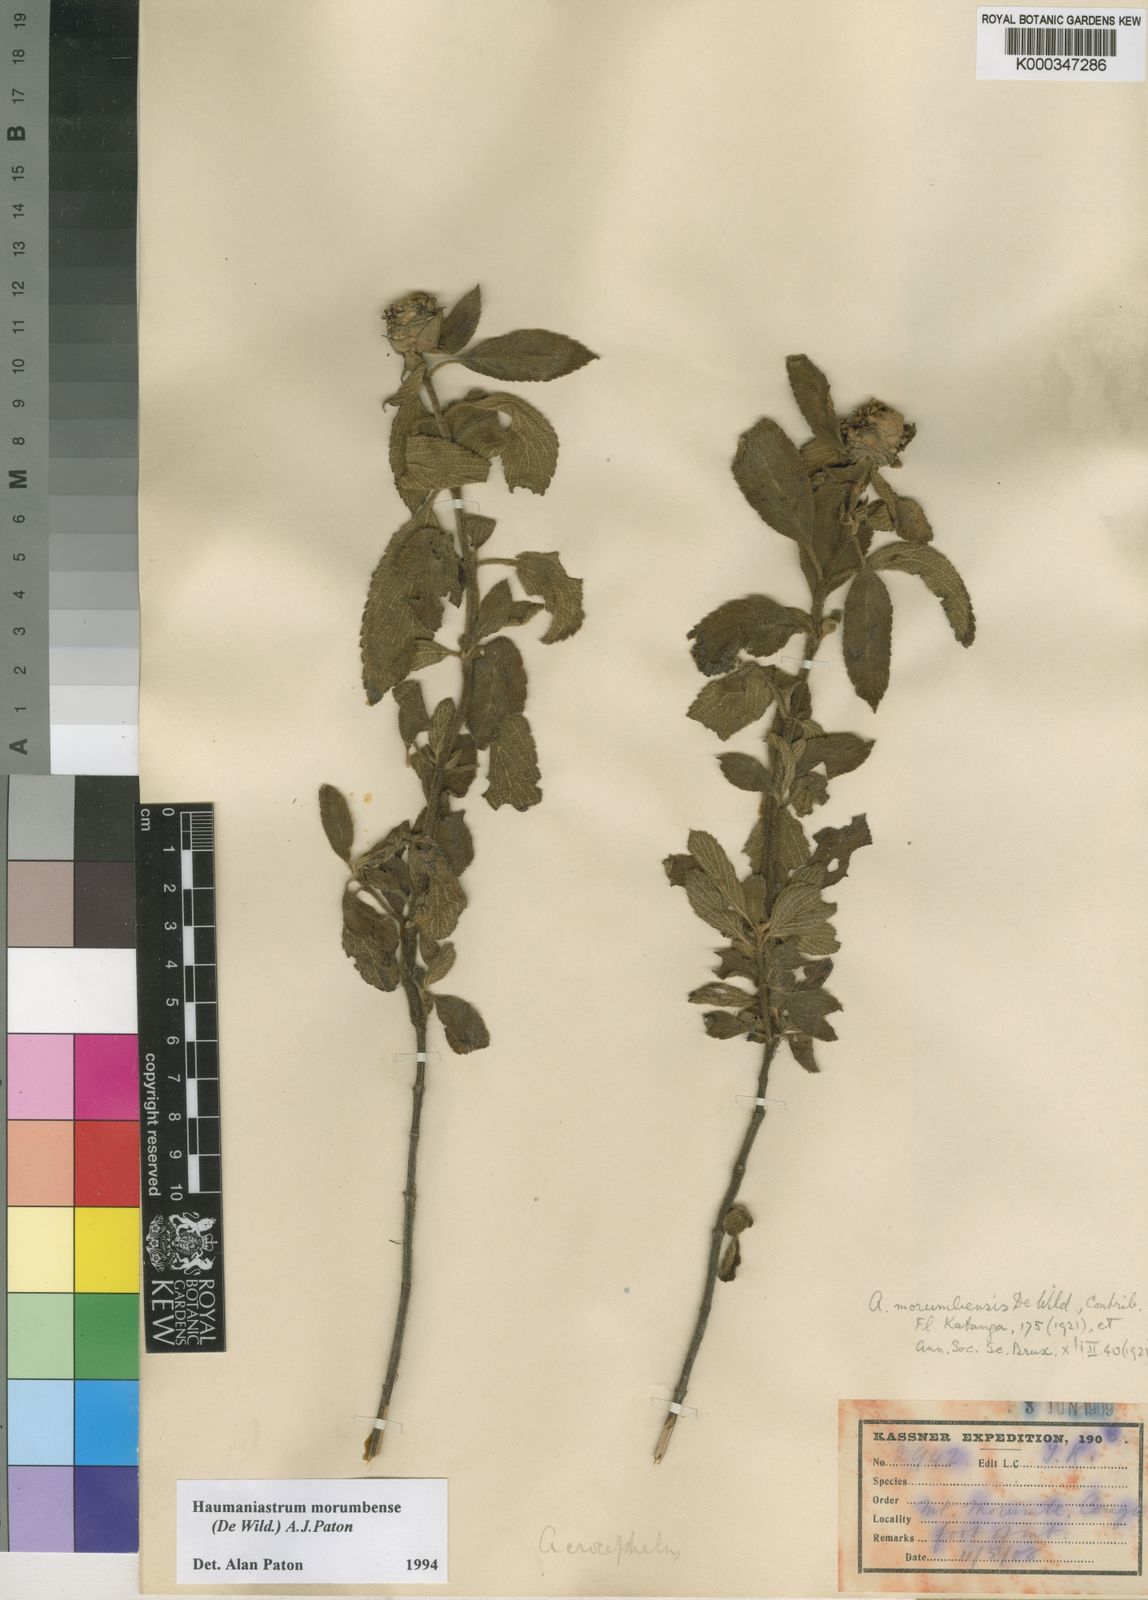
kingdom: Plantae
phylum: Tracheophyta
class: Magnoliopsida
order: Lamiales
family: Lamiaceae
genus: Haumaniastrum
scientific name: Haumaniastrum morumbense
